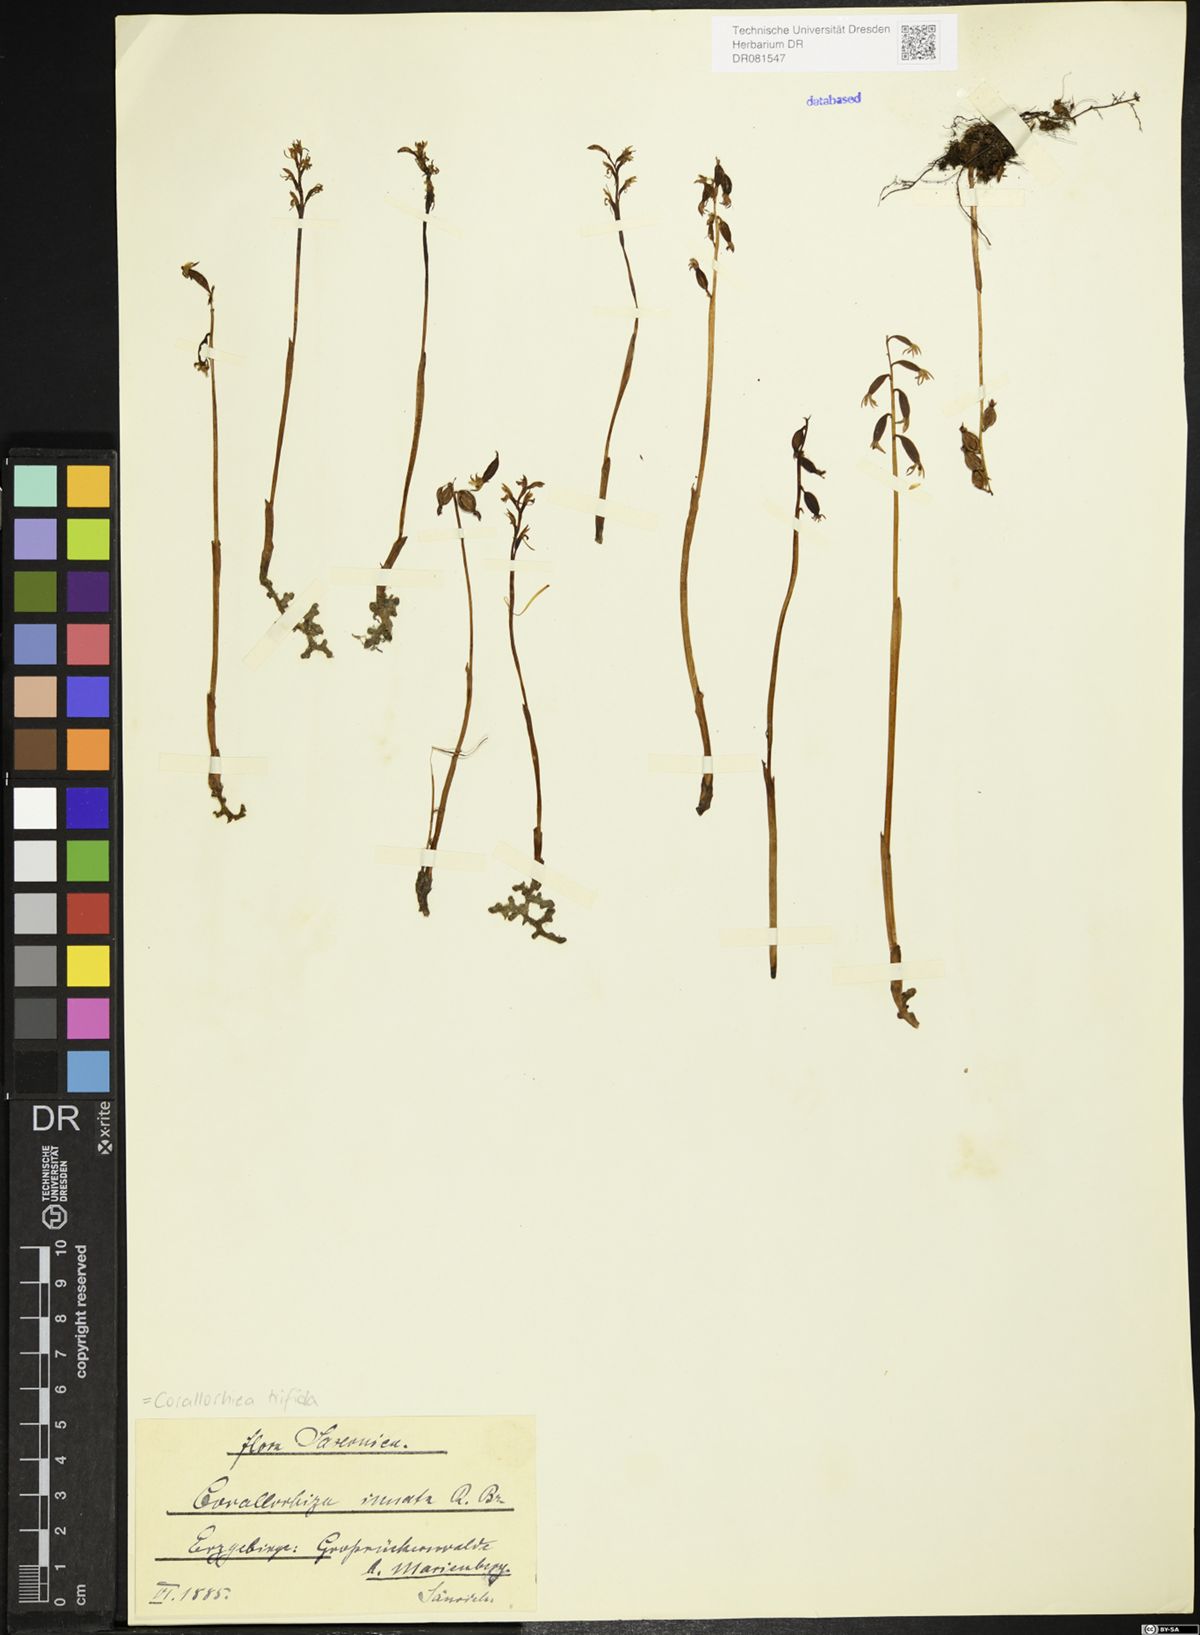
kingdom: Plantae
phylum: Tracheophyta
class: Liliopsida
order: Asparagales
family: Orchidaceae
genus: Corallorhiza
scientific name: Corallorhiza trifida
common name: Yellow coralroot
